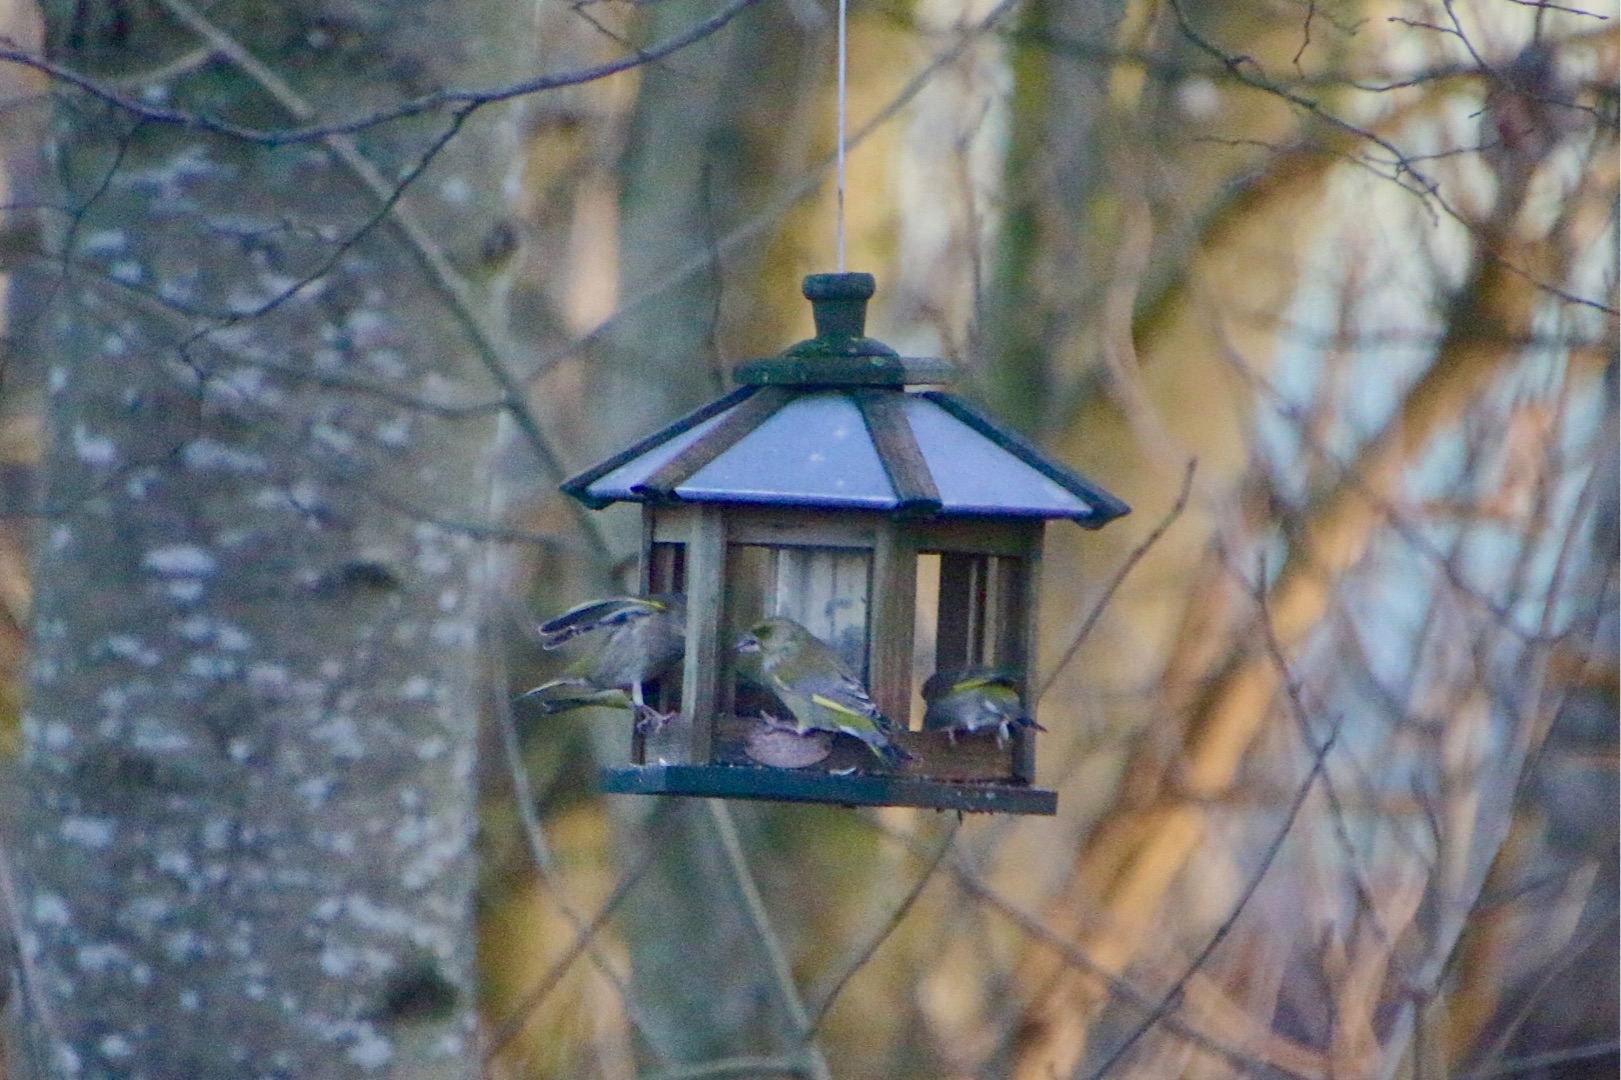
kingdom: Plantae
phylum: Tracheophyta
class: Liliopsida
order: Poales
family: Poaceae
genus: Chloris
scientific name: Chloris chloris
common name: Grønirisk
